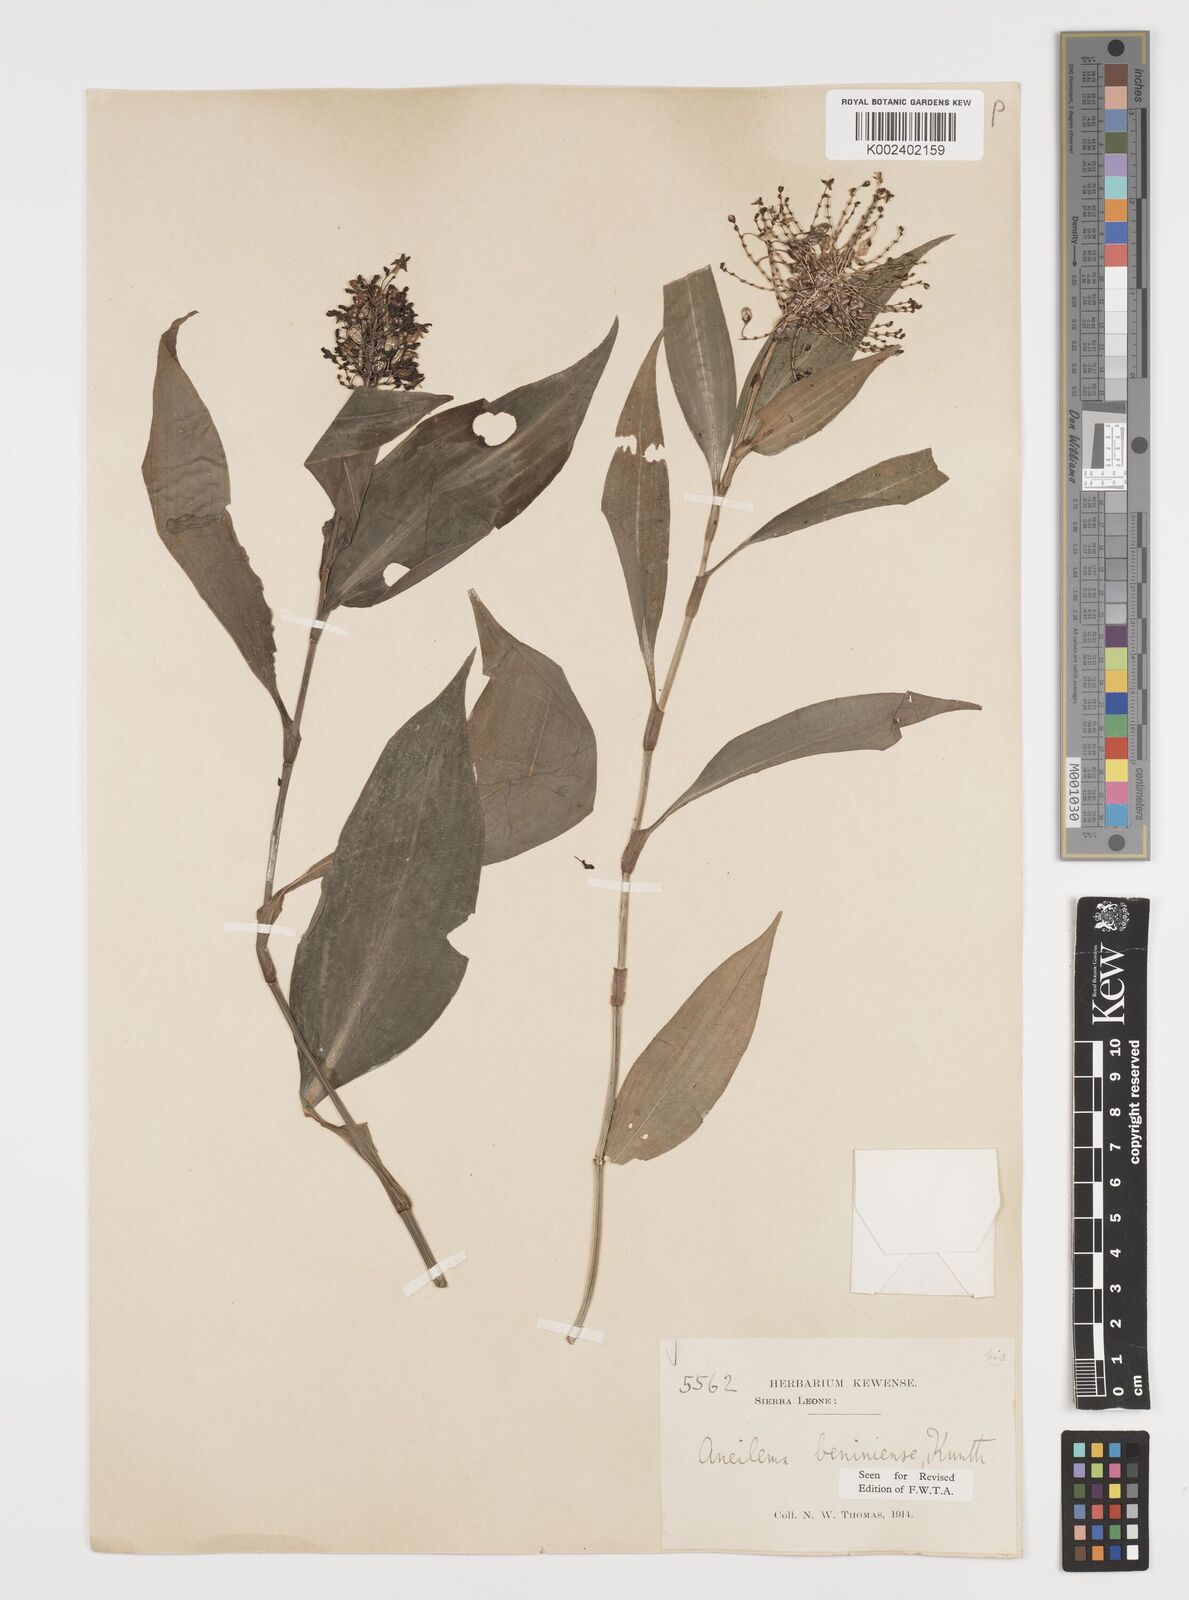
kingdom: Plantae
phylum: Tracheophyta
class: Liliopsida
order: Commelinales
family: Commelinaceae
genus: Aneilema
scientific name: Aneilema beniniense
